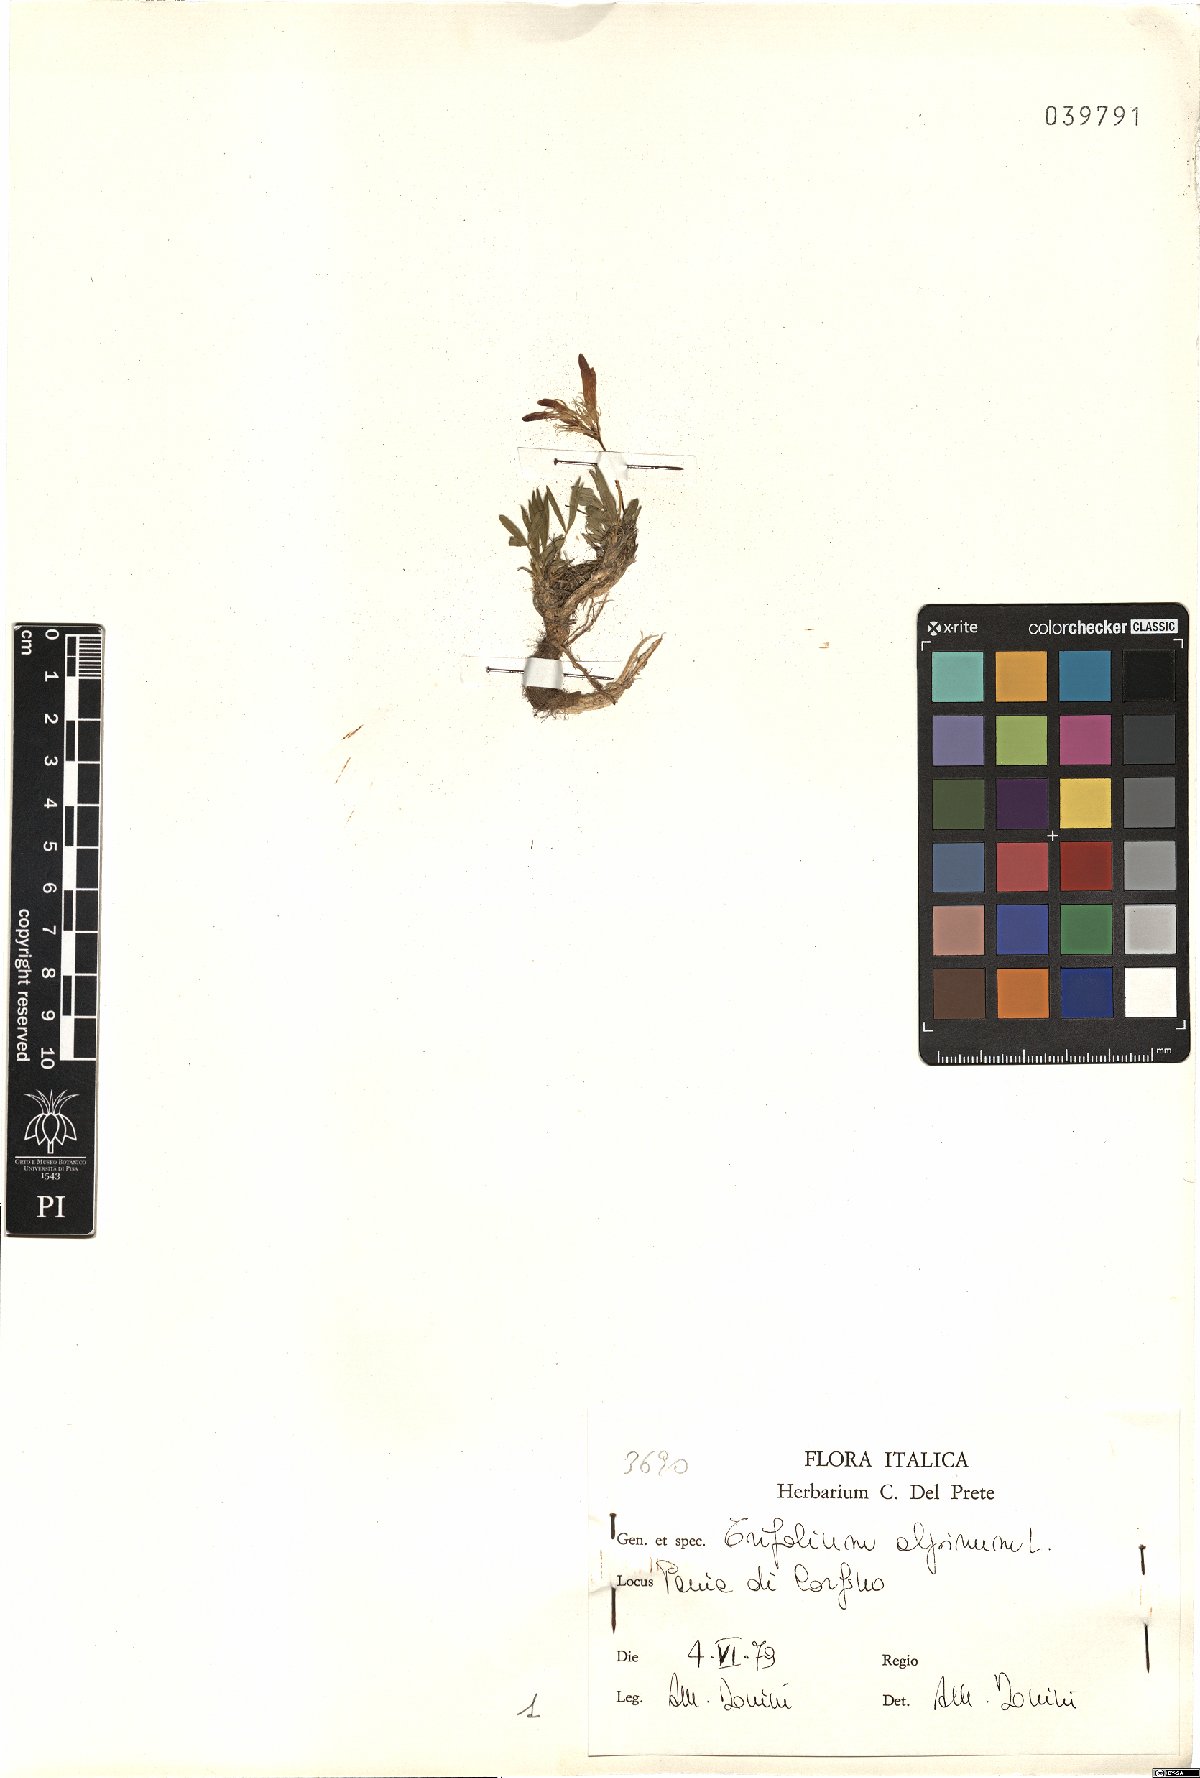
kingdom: Plantae
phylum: Tracheophyta
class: Magnoliopsida
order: Fabales
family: Fabaceae
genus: Trifolium
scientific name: Trifolium alpinum
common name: Alpine clover
